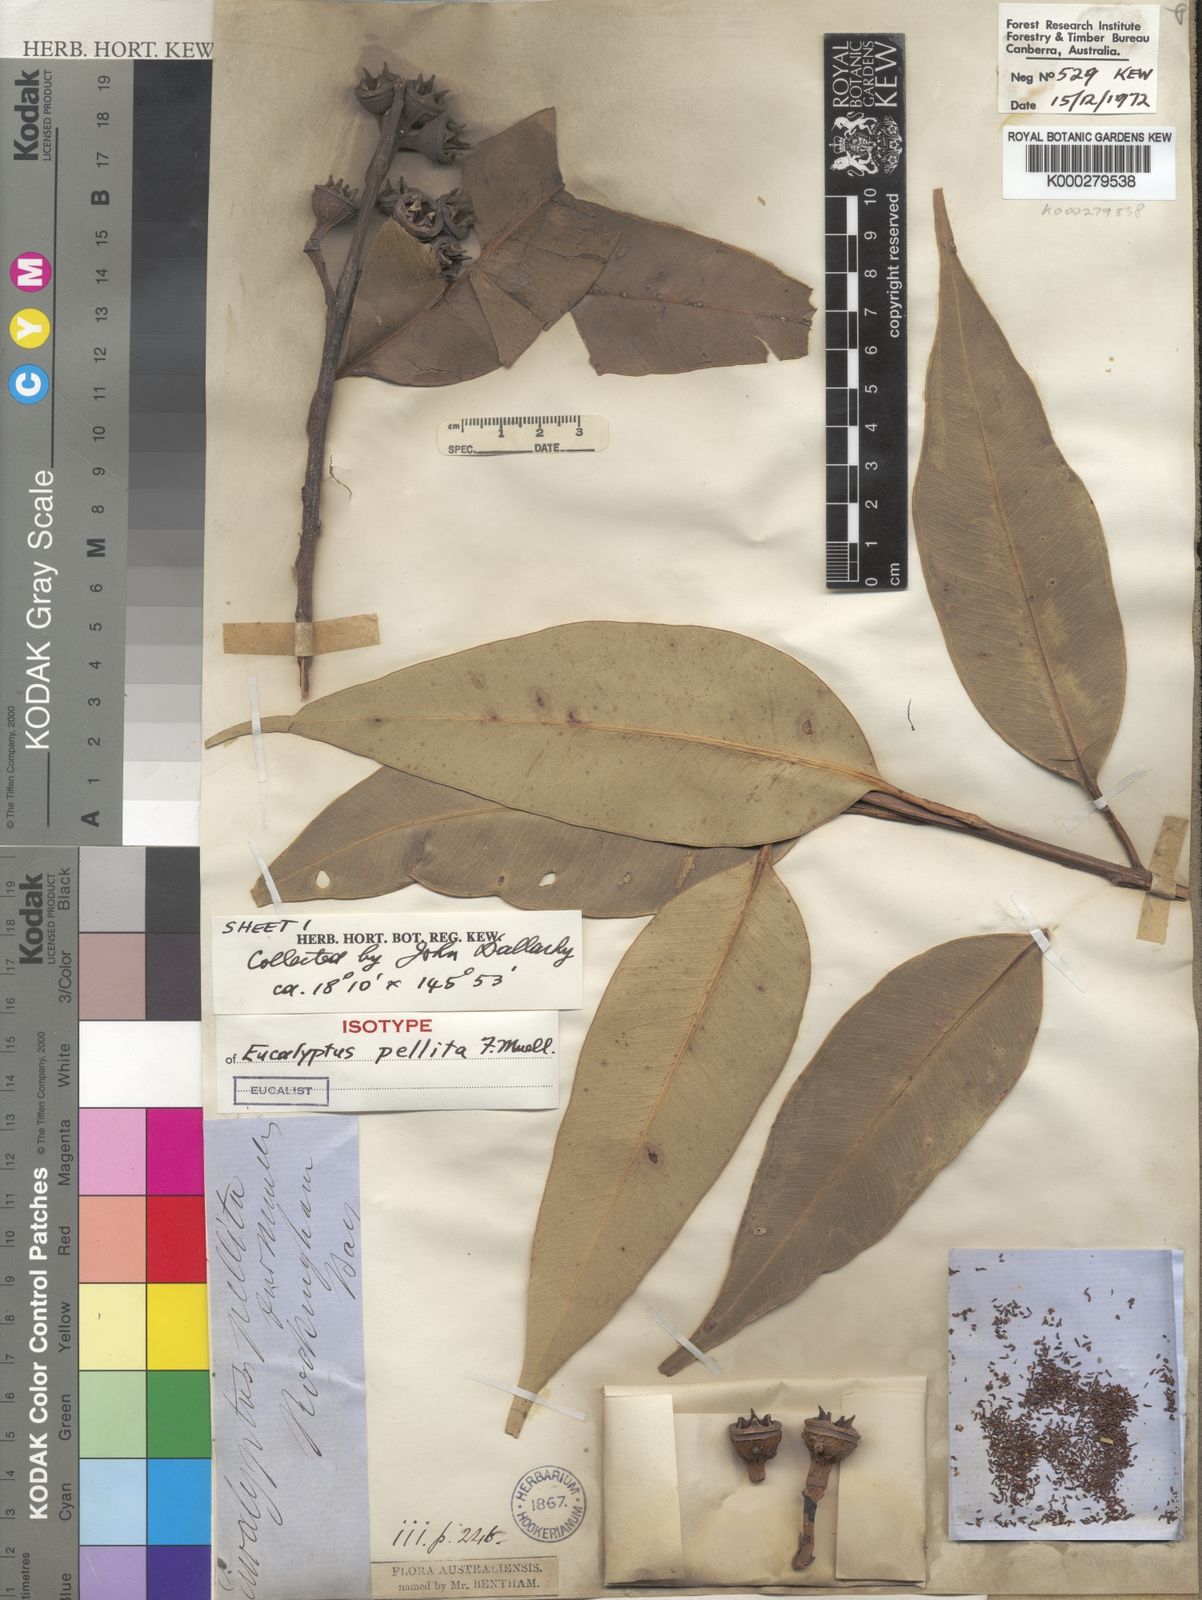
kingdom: Plantae
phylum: Tracheophyta
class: Magnoliopsida
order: Myrtales
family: Myrtaceae
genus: Eucalyptus
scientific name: Eucalyptus pellita
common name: Large-fruited-red-mahogany
